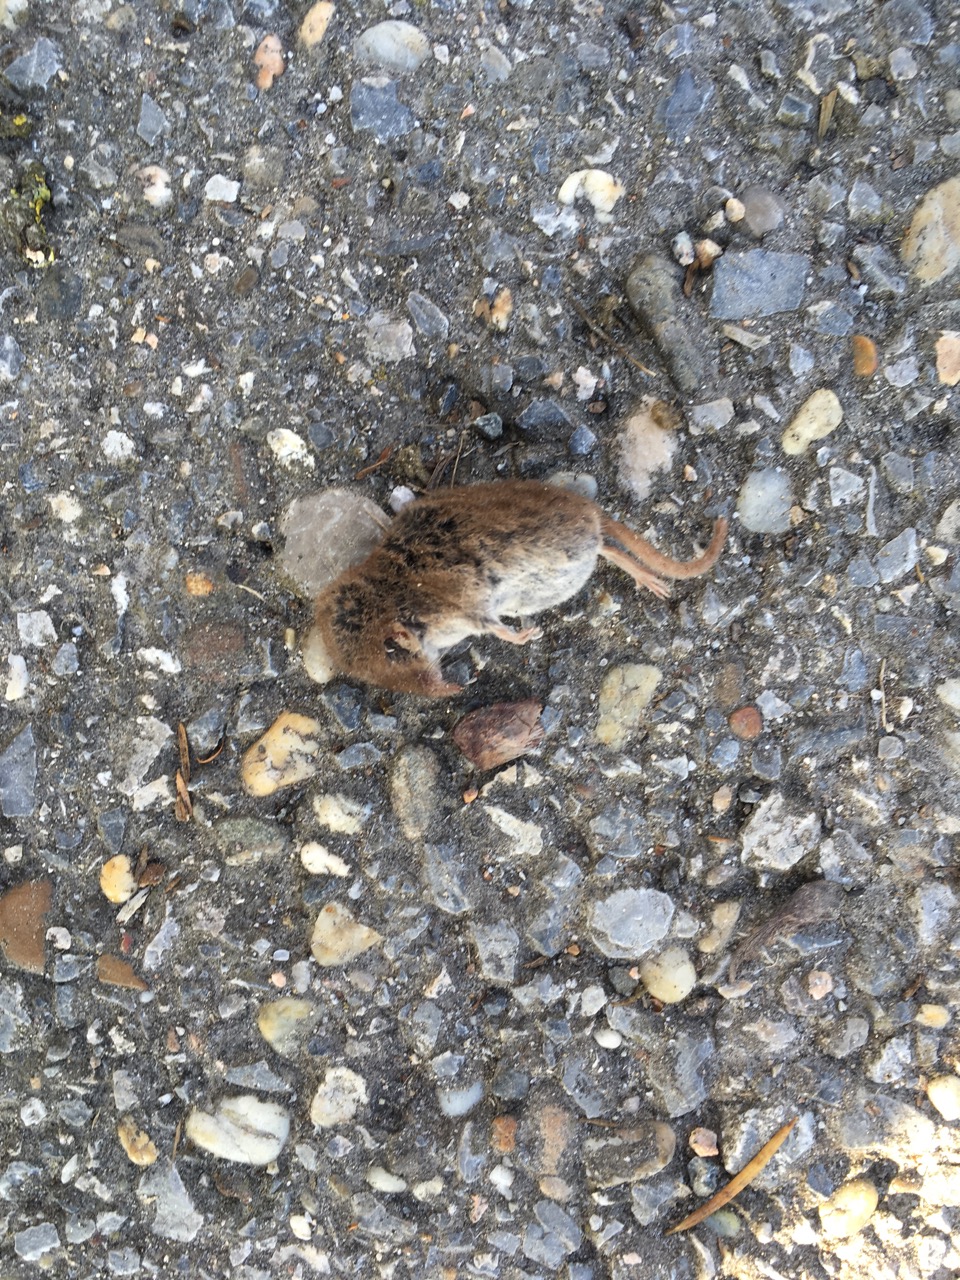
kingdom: Animalia
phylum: Chordata
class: Mammalia
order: Soricomorpha
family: Soricidae
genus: Sorex
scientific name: Sorex minutus
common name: Eurasian pygmy shrew
